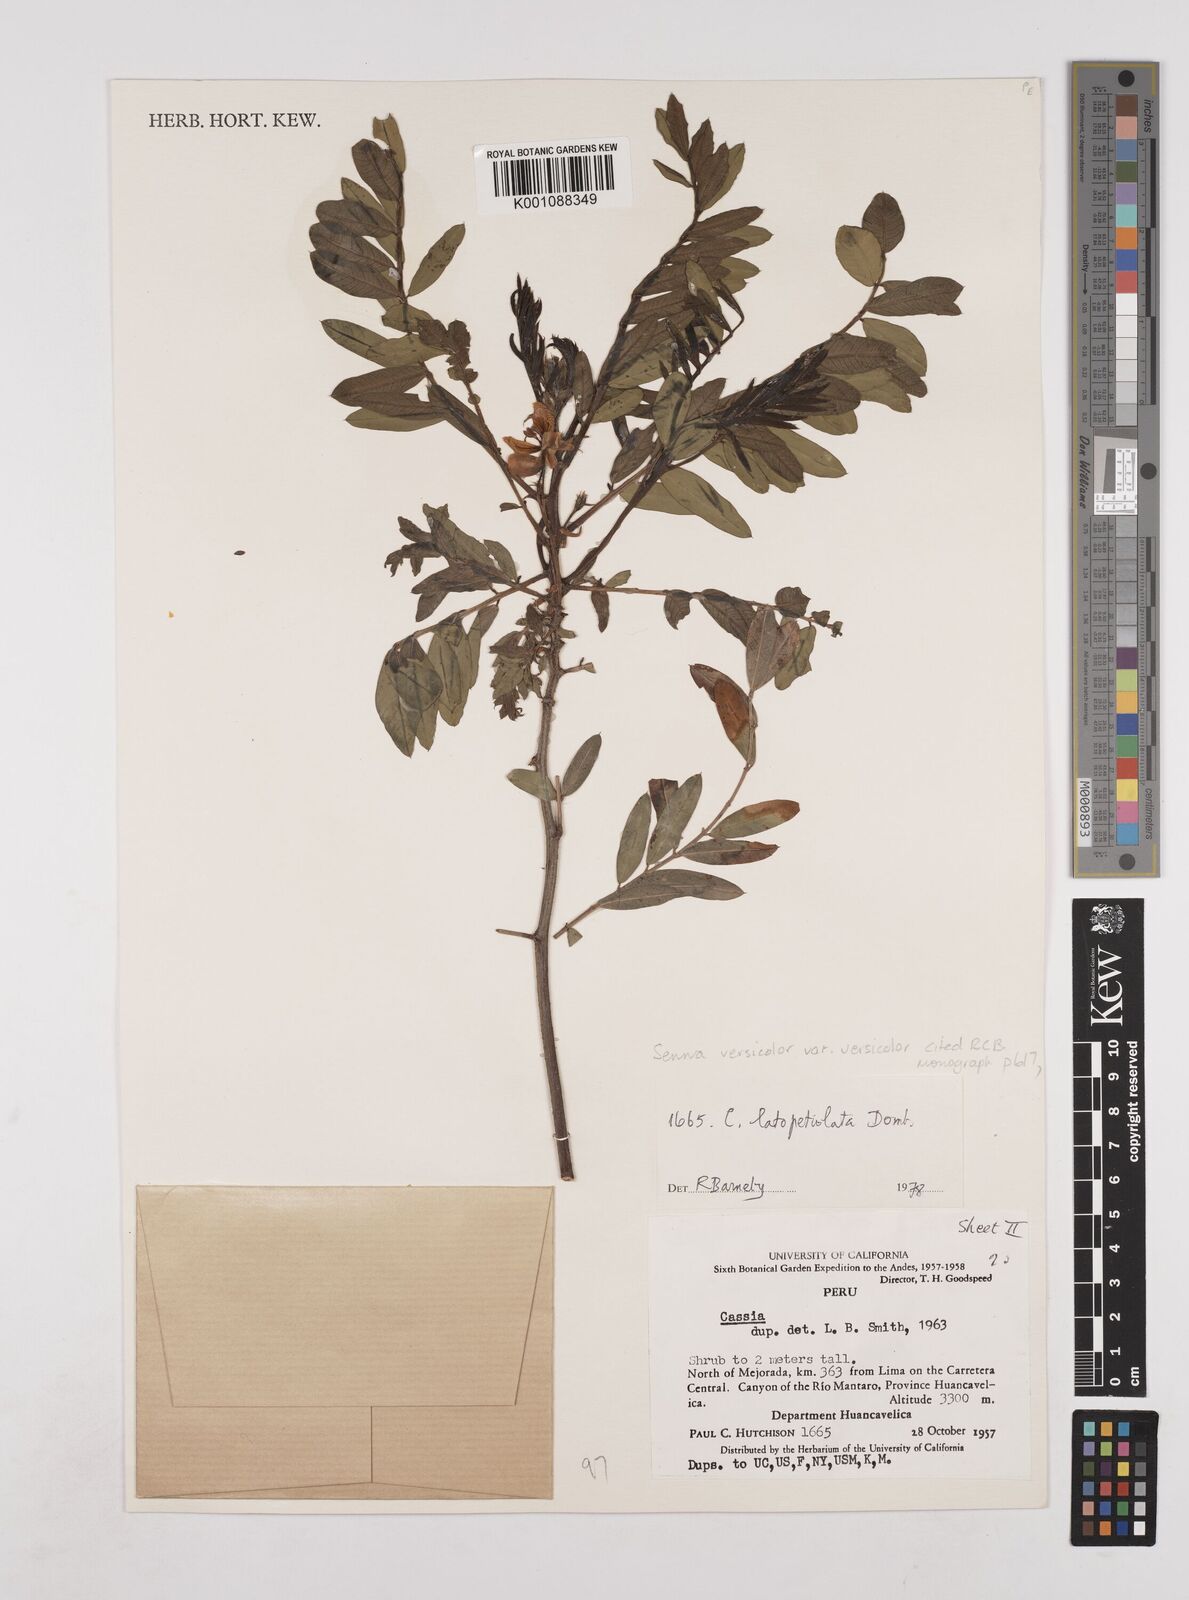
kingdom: Plantae
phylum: Tracheophyta
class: Magnoliopsida
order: Fabales
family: Fabaceae
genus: Senna
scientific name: Senna versicolor
